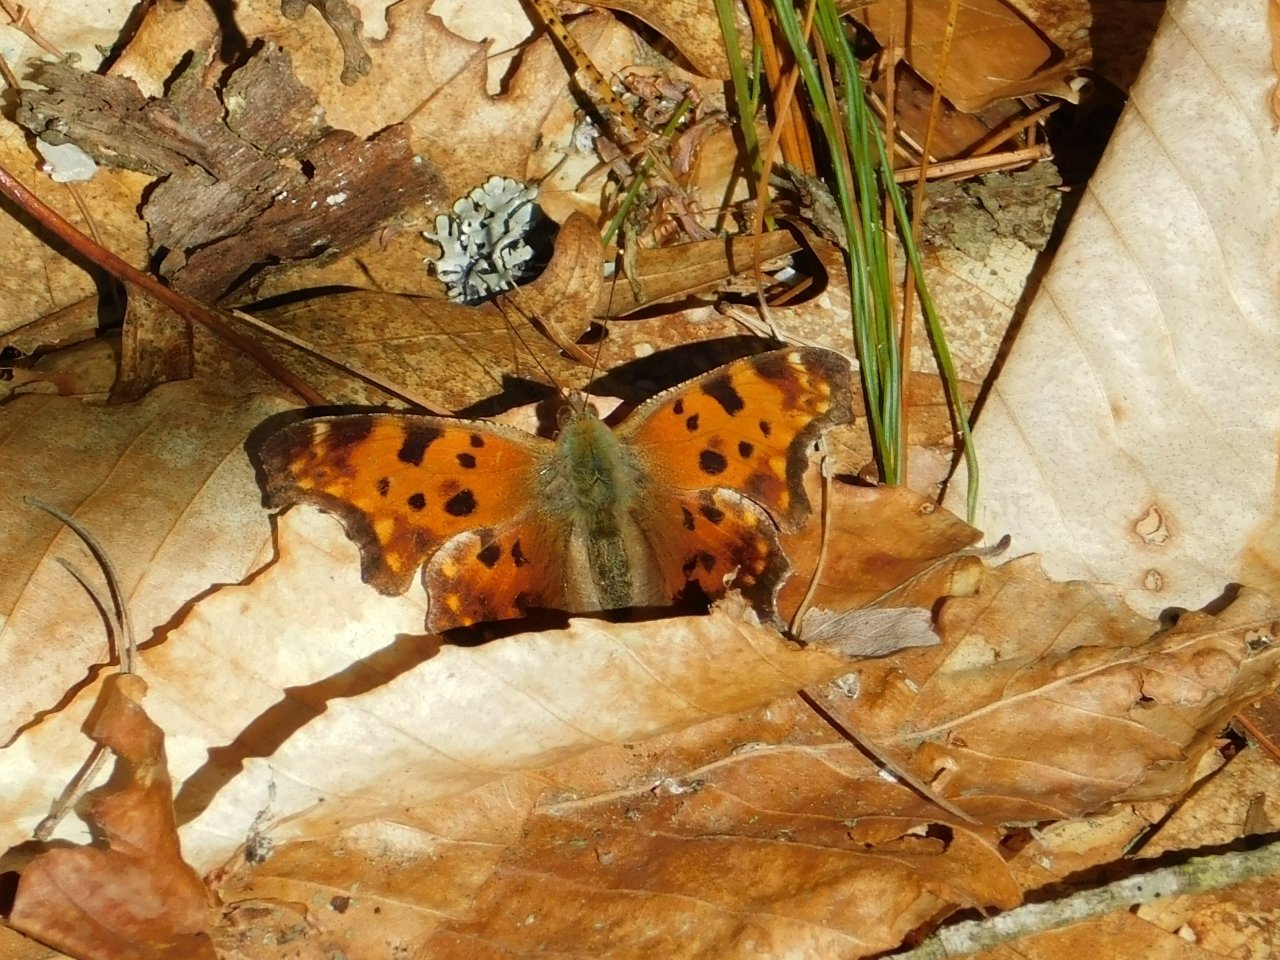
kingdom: Animalia
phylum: Arthropoda
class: Insecta
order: Lepidoptera
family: Nymphalidae
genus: Polygonia
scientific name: Polygonia comma
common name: Eastern Comma
